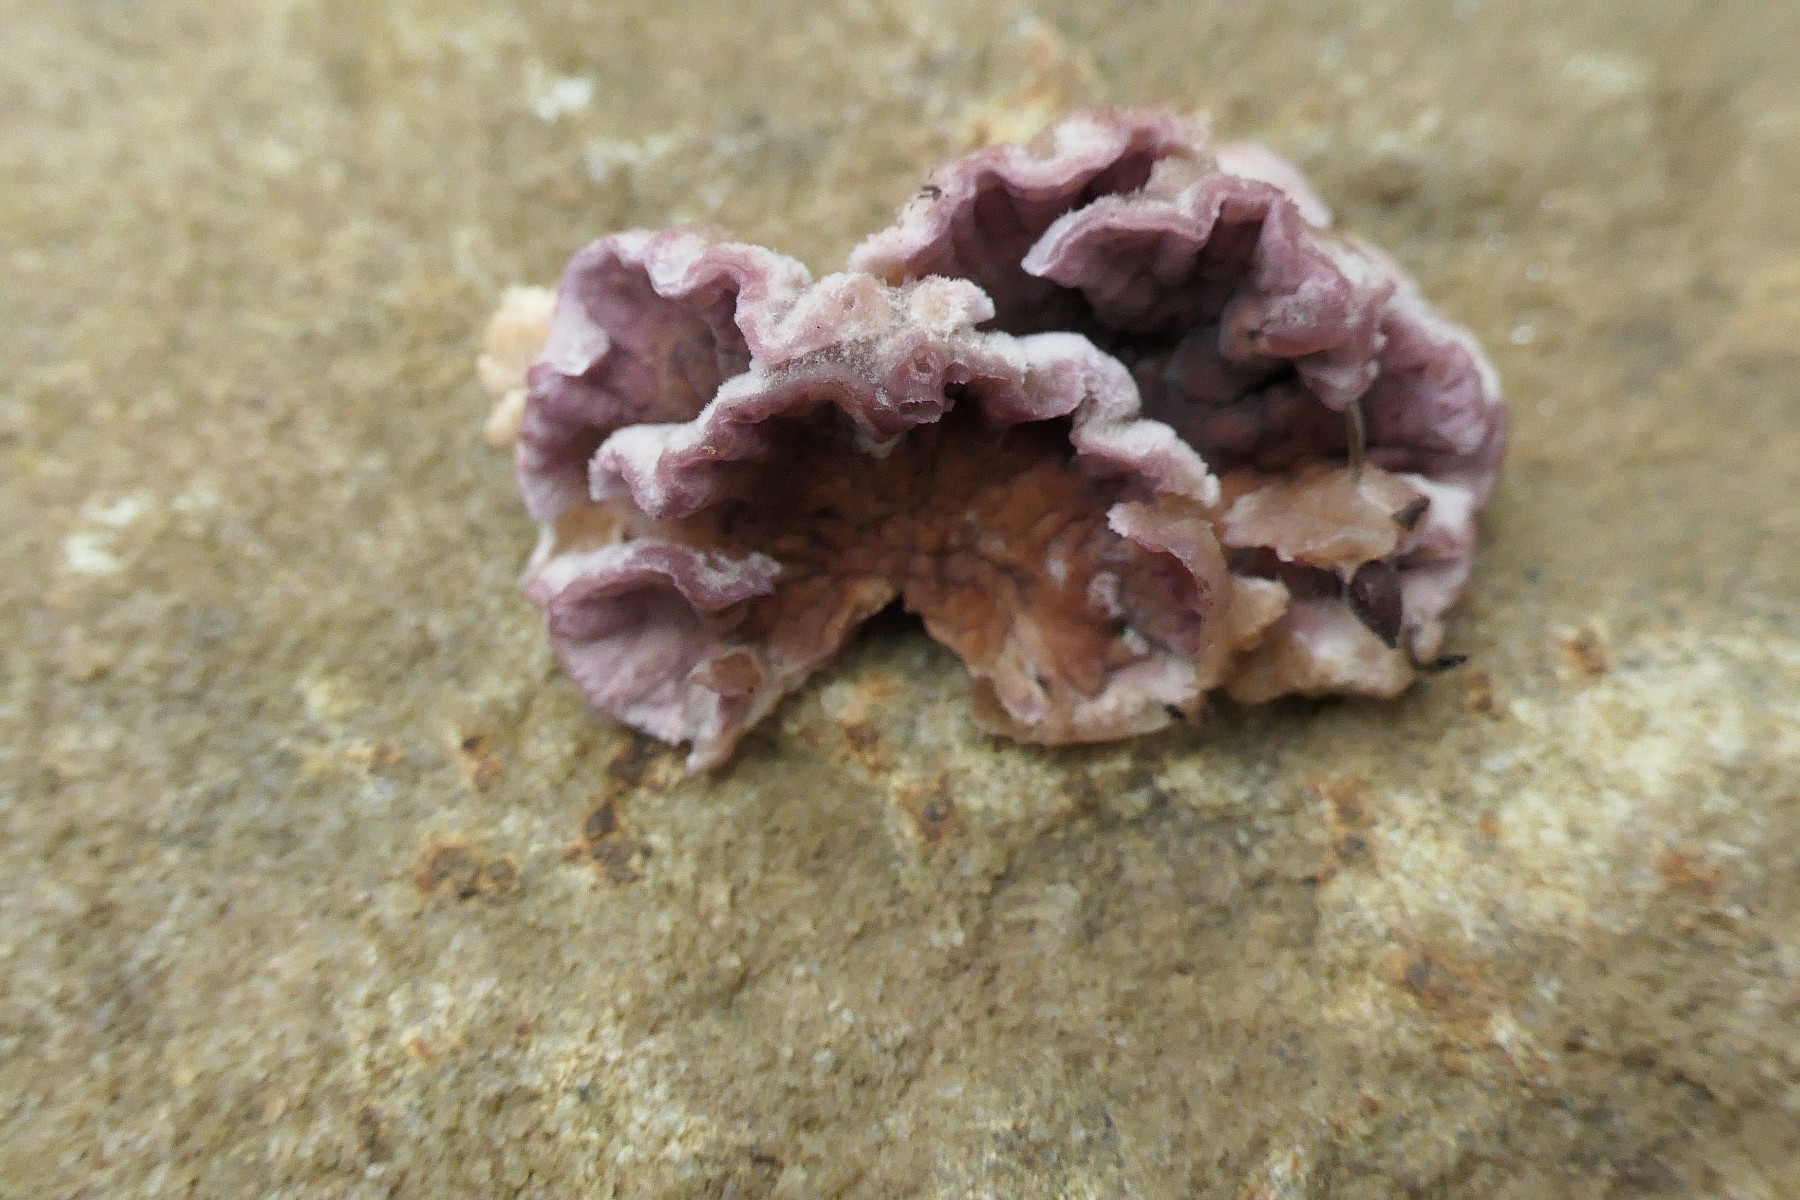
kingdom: Fungi
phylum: Basidiomycota
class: Agaricomycetes
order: Agaricales
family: Cyphellaceae
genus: Chondrostereum
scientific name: Chondrostereum purpureum
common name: purpurlædersvamp
